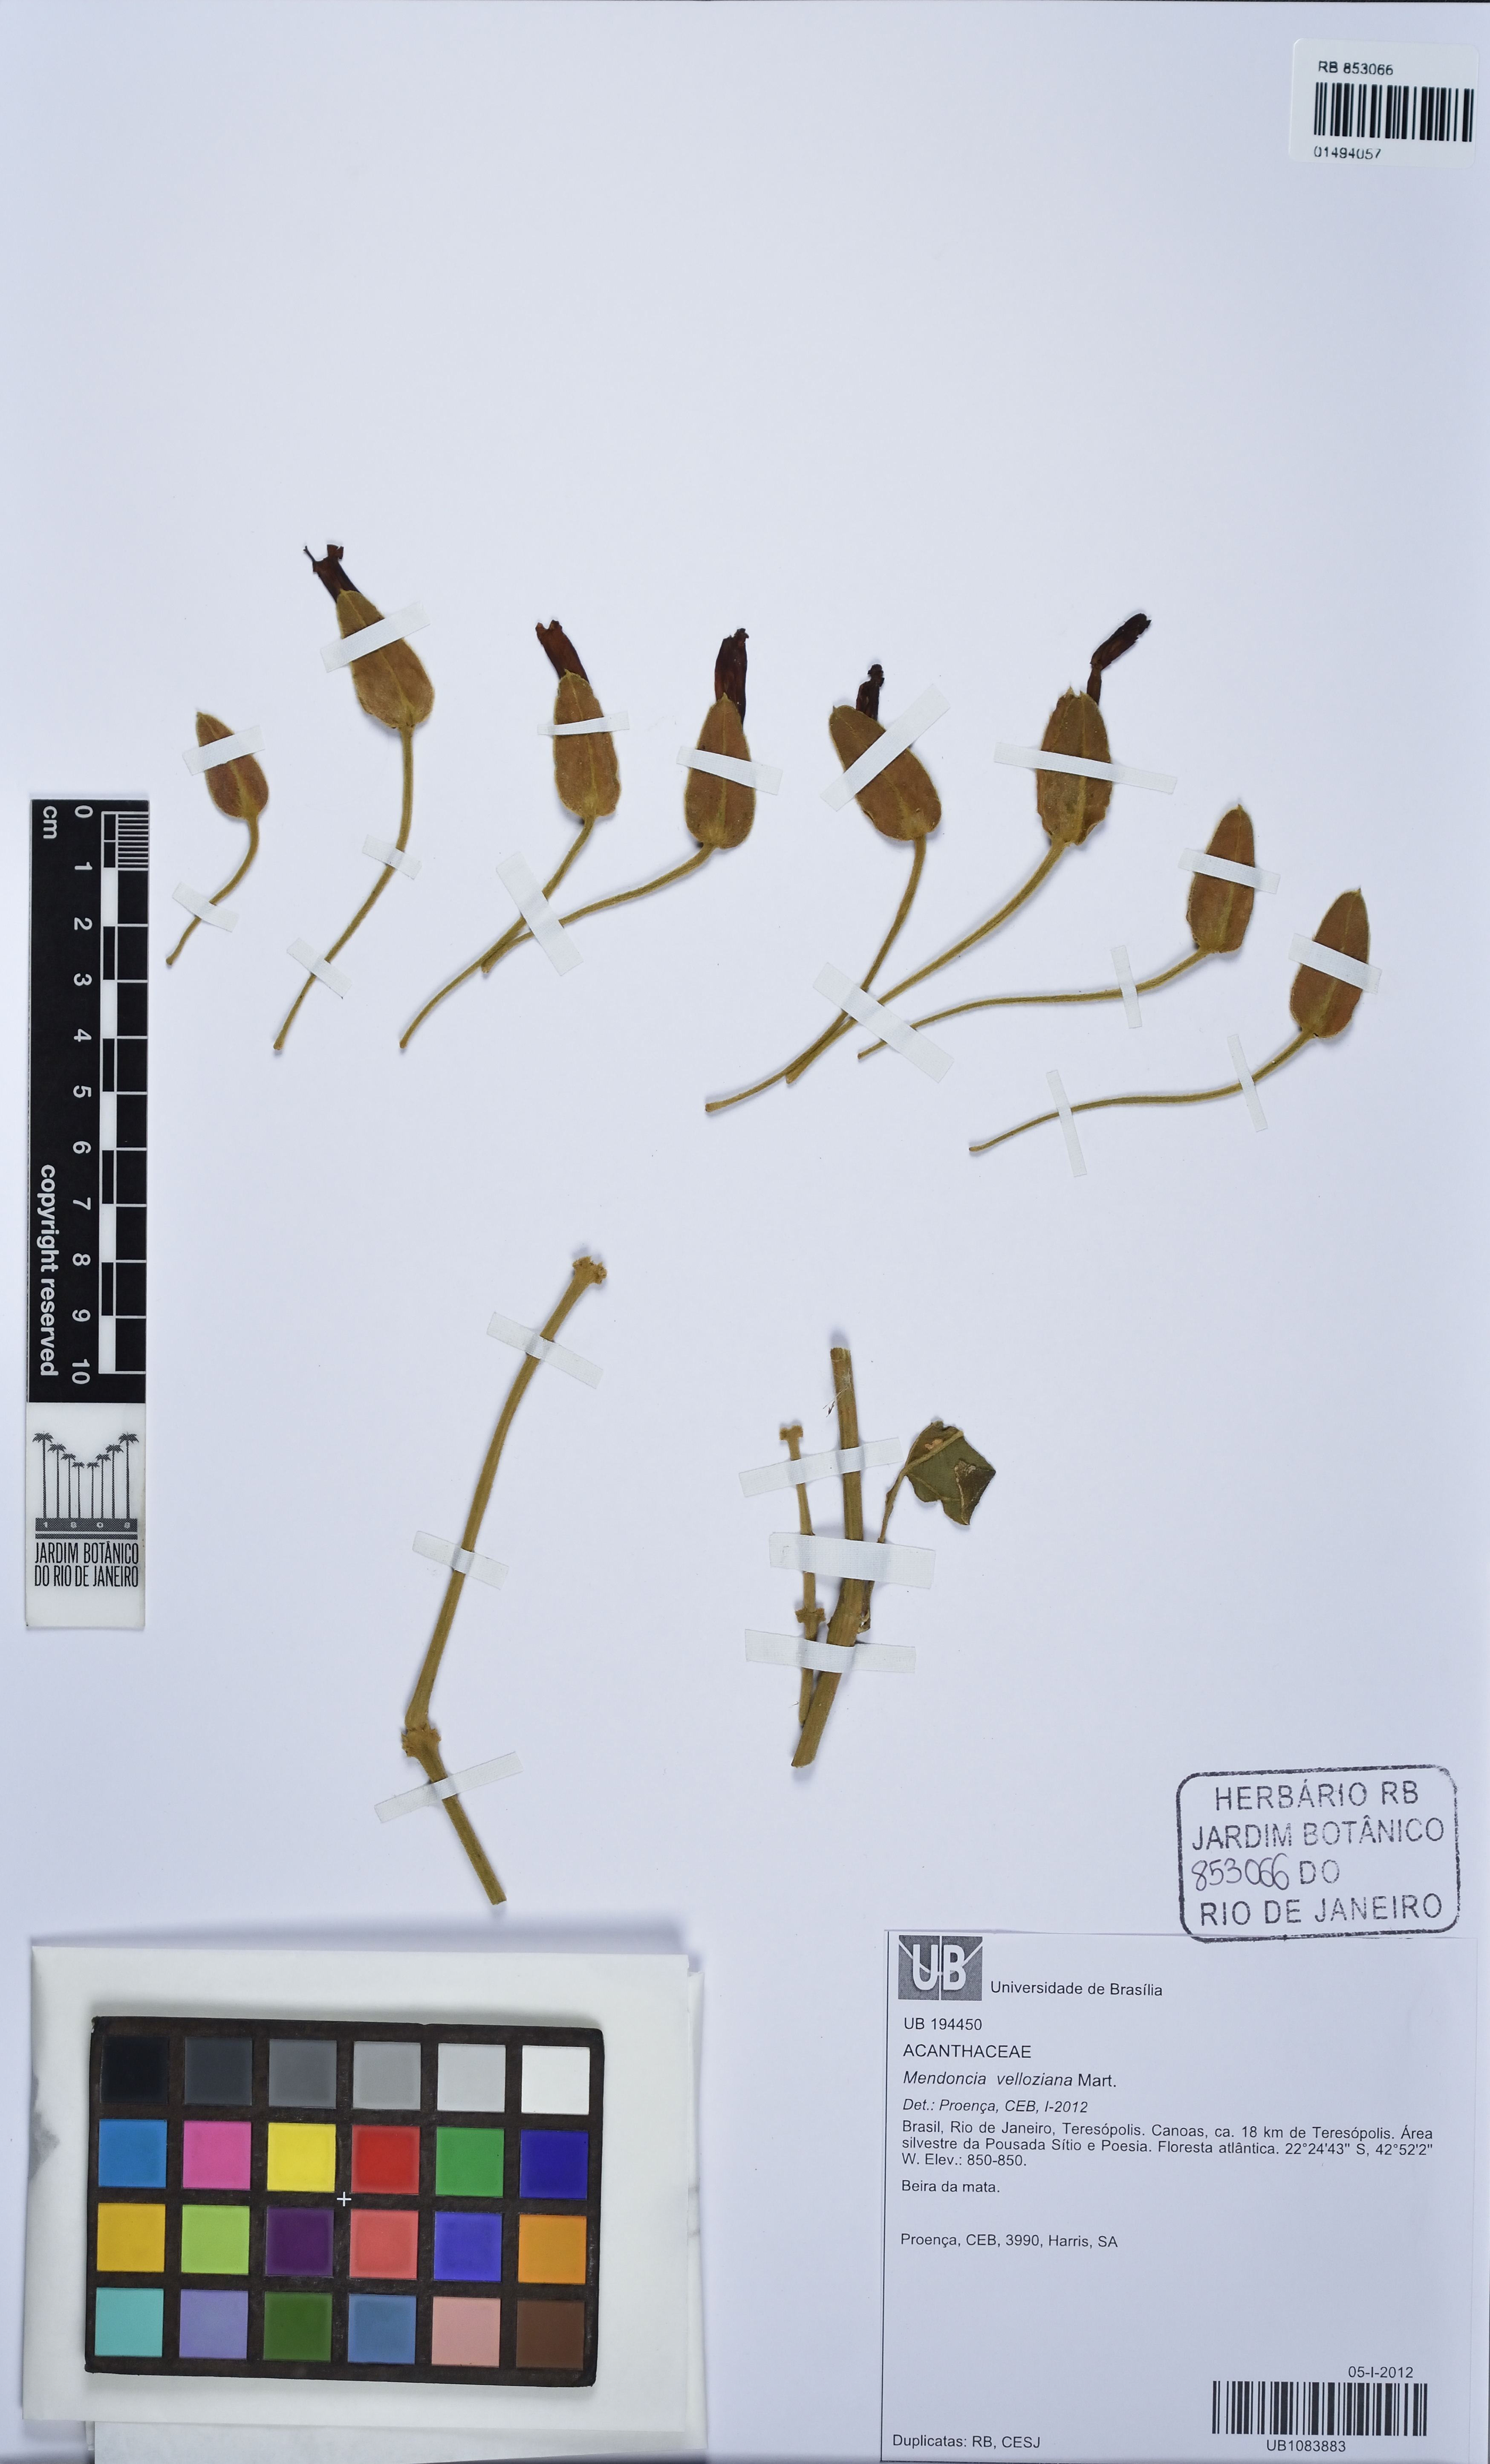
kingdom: Plantae
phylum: Tracheophyta
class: Magnoliopsida
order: Lamiales
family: Acanthaceae
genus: Mendoncia
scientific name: Mendoncia velloziana
